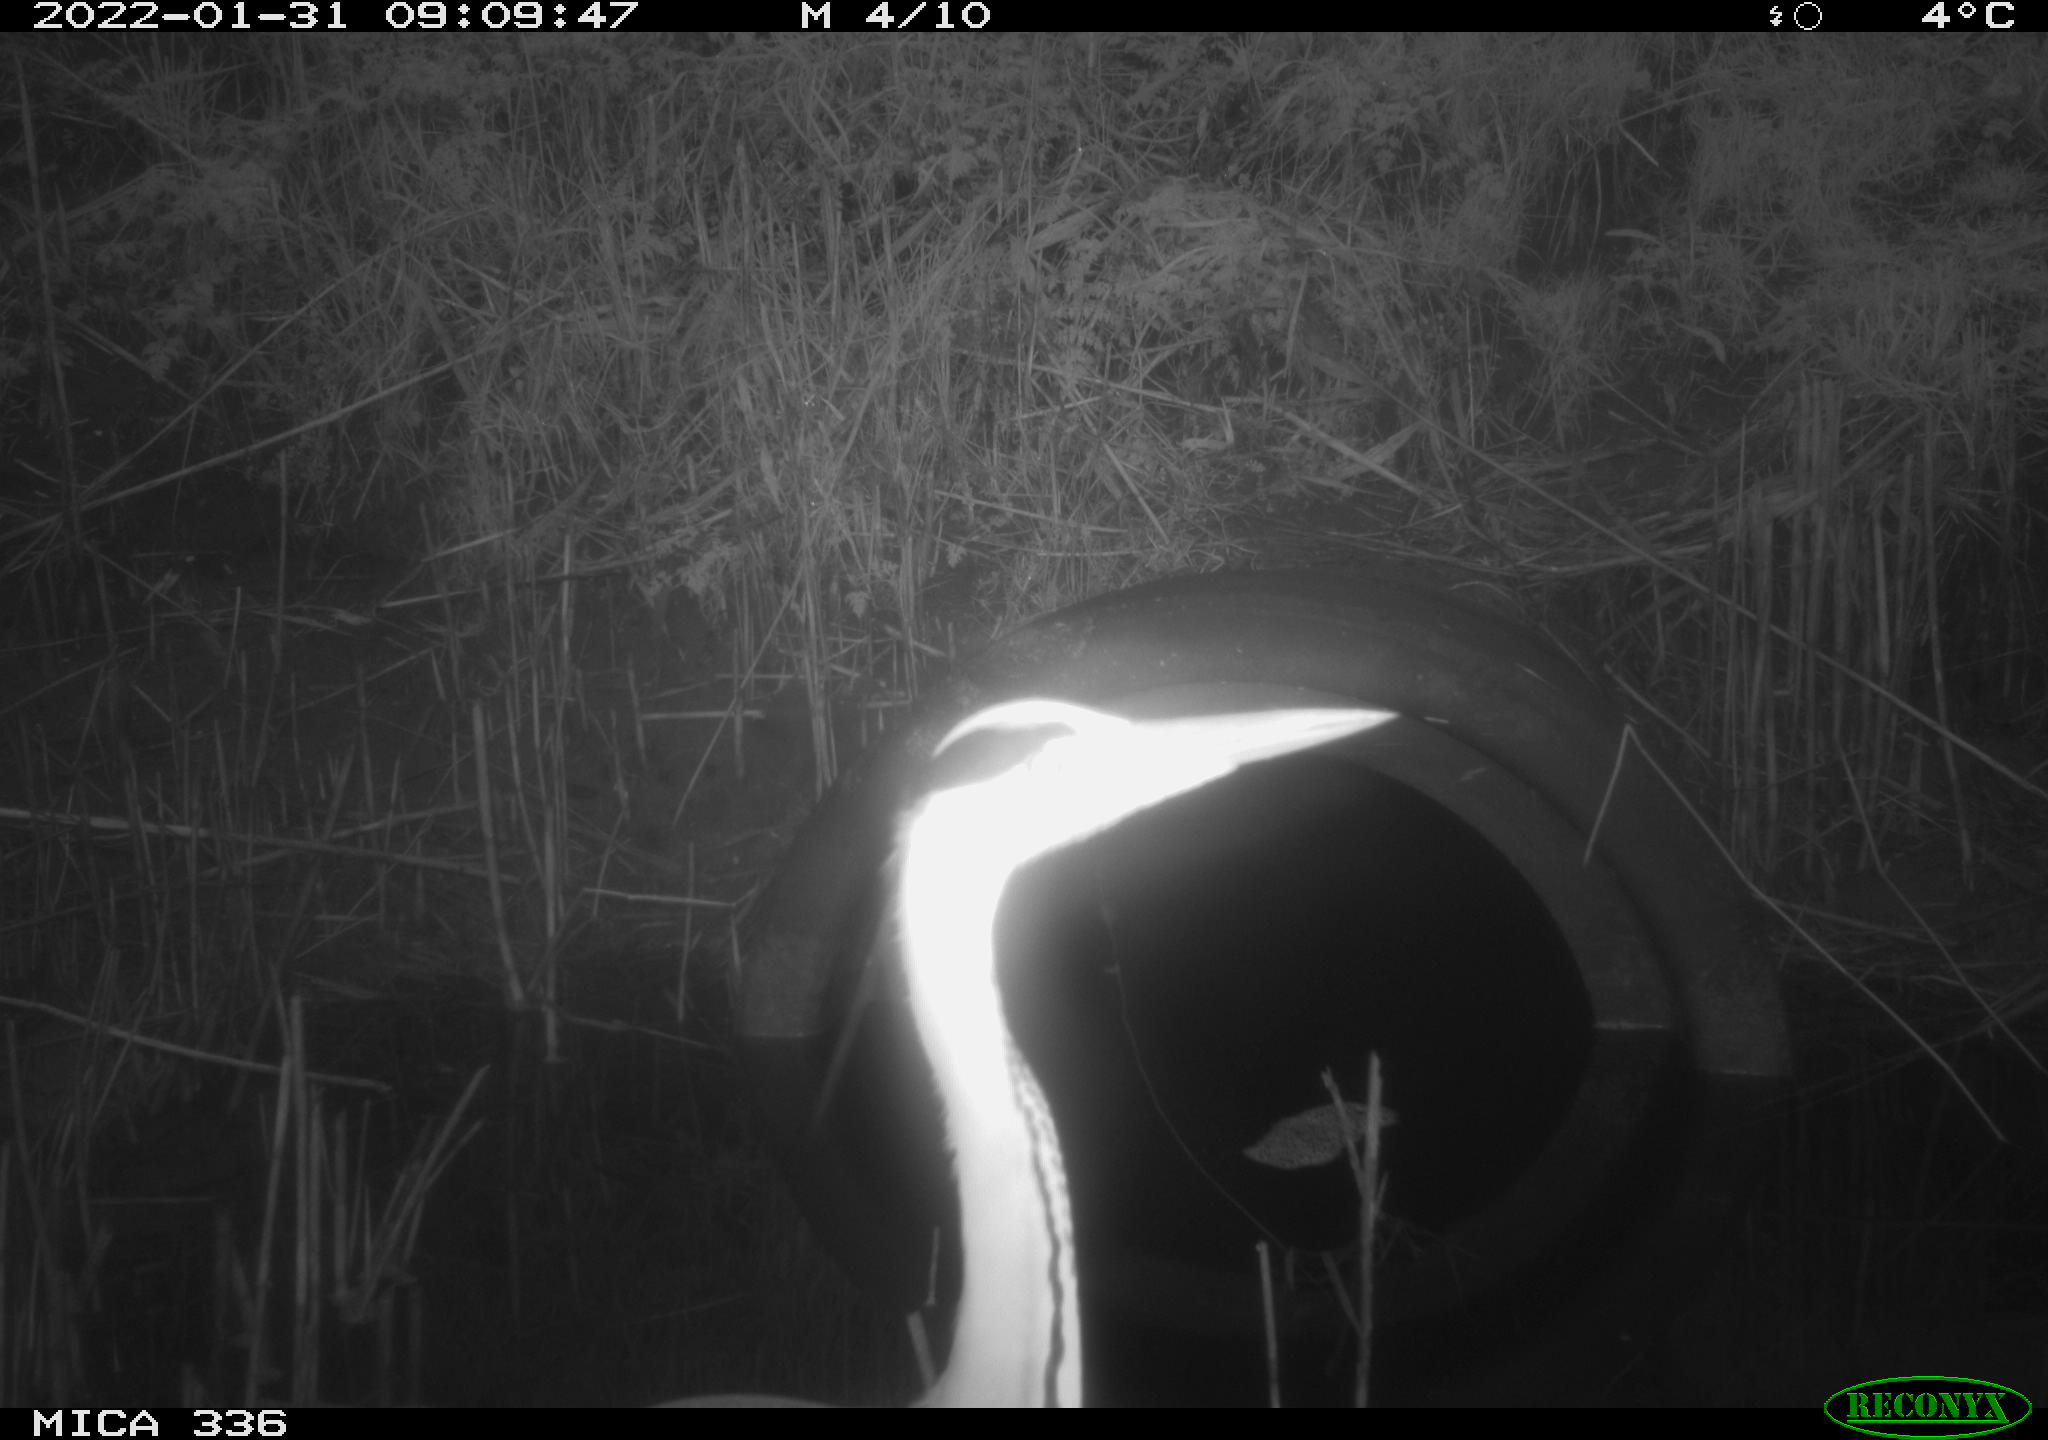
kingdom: Animalia
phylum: Chordata
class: Aves
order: Pelecaniformes
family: Ardeidae
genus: Ardea
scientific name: Ardea cinerea
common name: Grey heron
